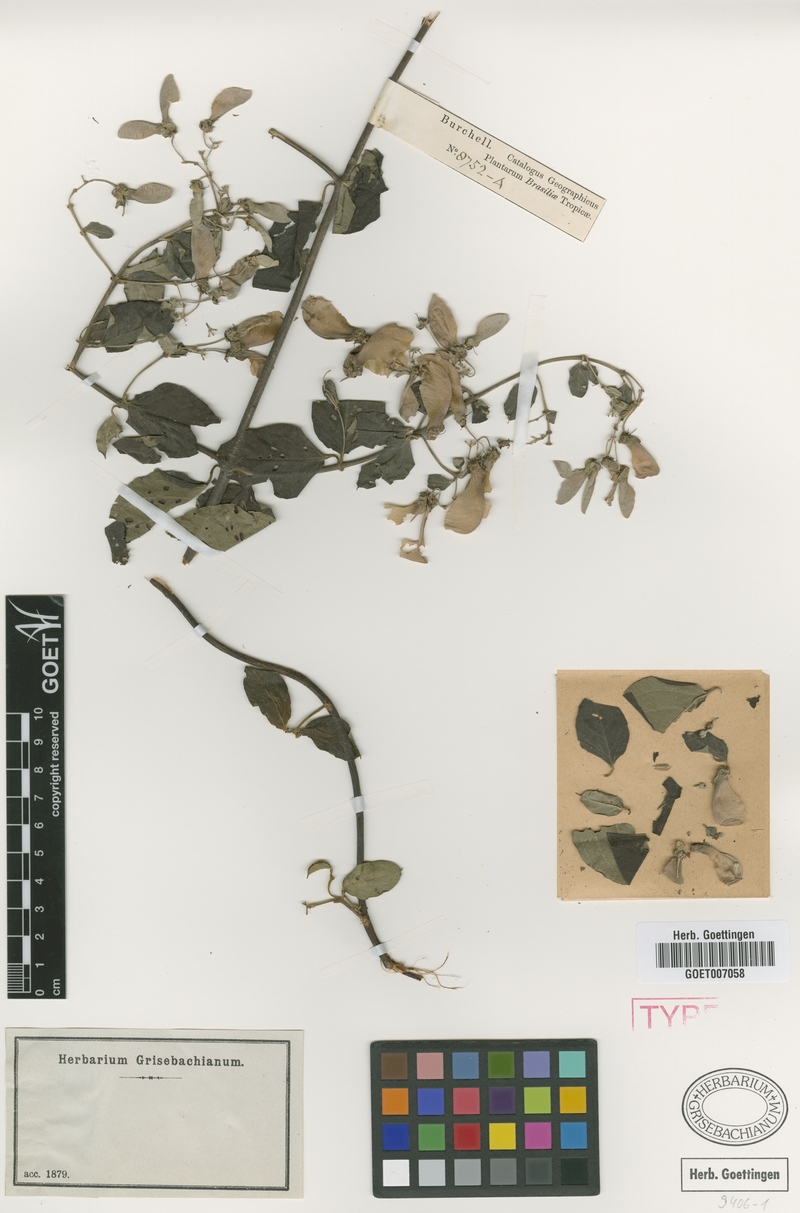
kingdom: Plantae
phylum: Tracheophyta
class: Magnoliopsida
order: Malpighiales
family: Malpighiaceae
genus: Banisteriopsis
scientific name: Banisteriopsis muricata
